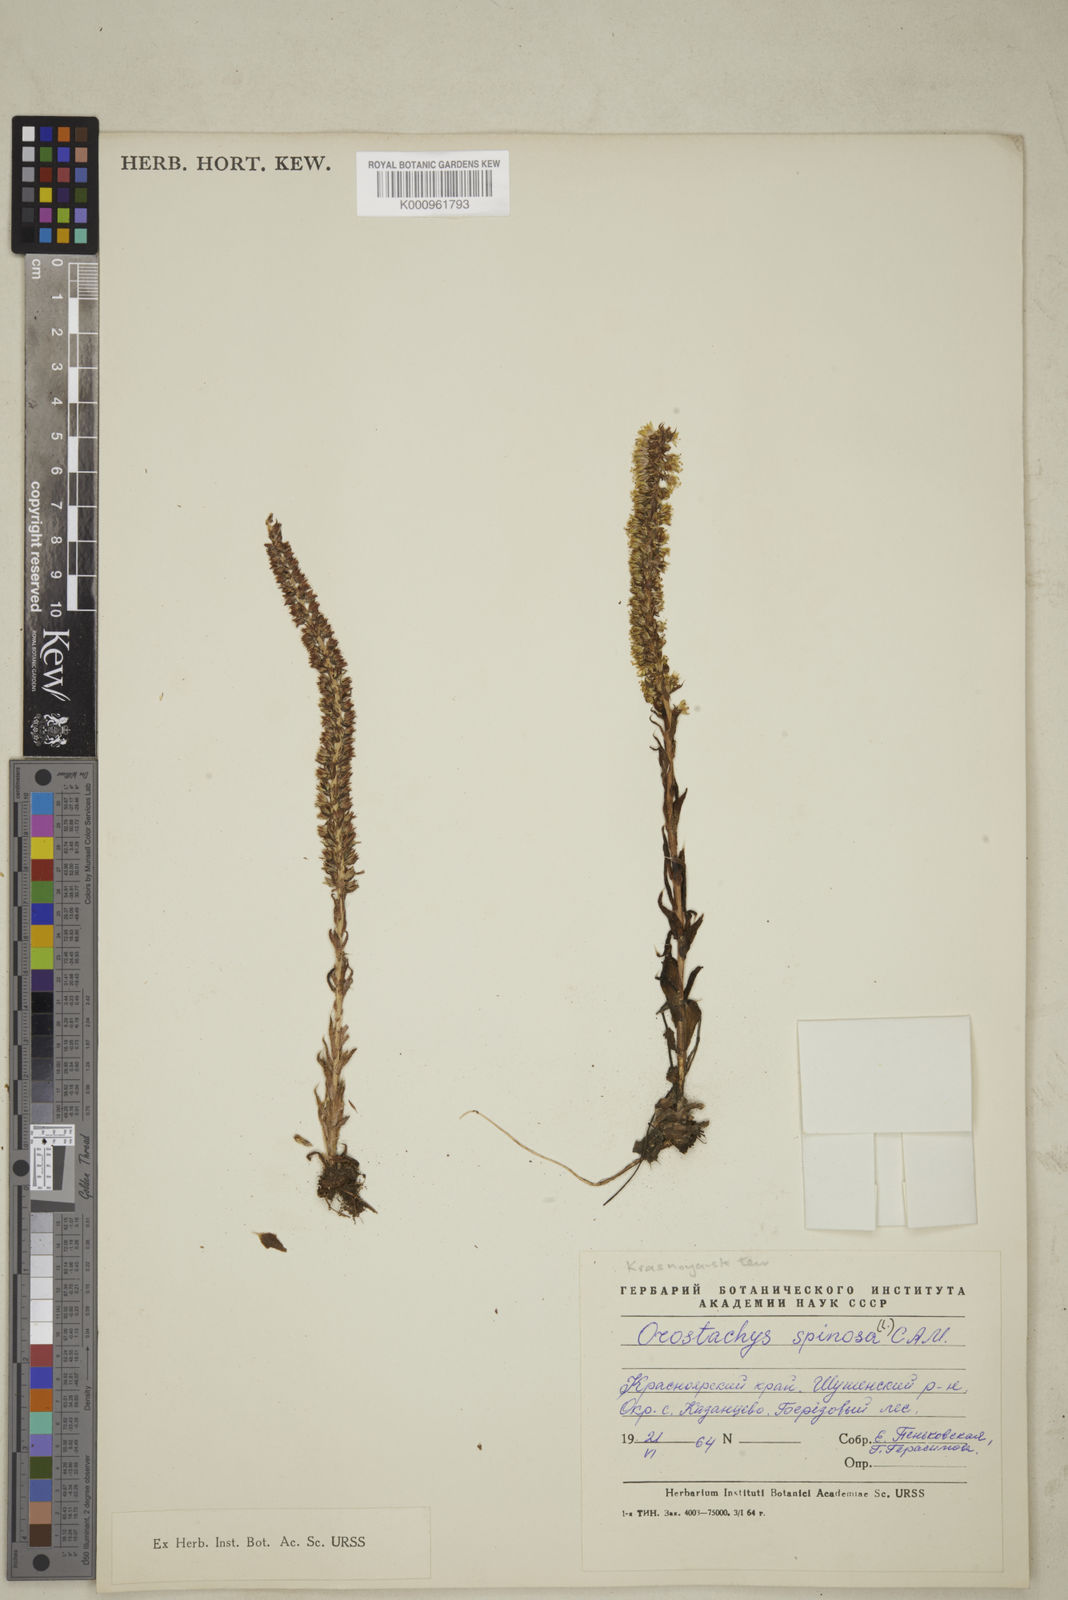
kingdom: Plantae
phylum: Tracheophyta
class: Magnoliopsida
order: Saxifragales
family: Crassulaceae
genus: Orostachys
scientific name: Orostachys spinosa
